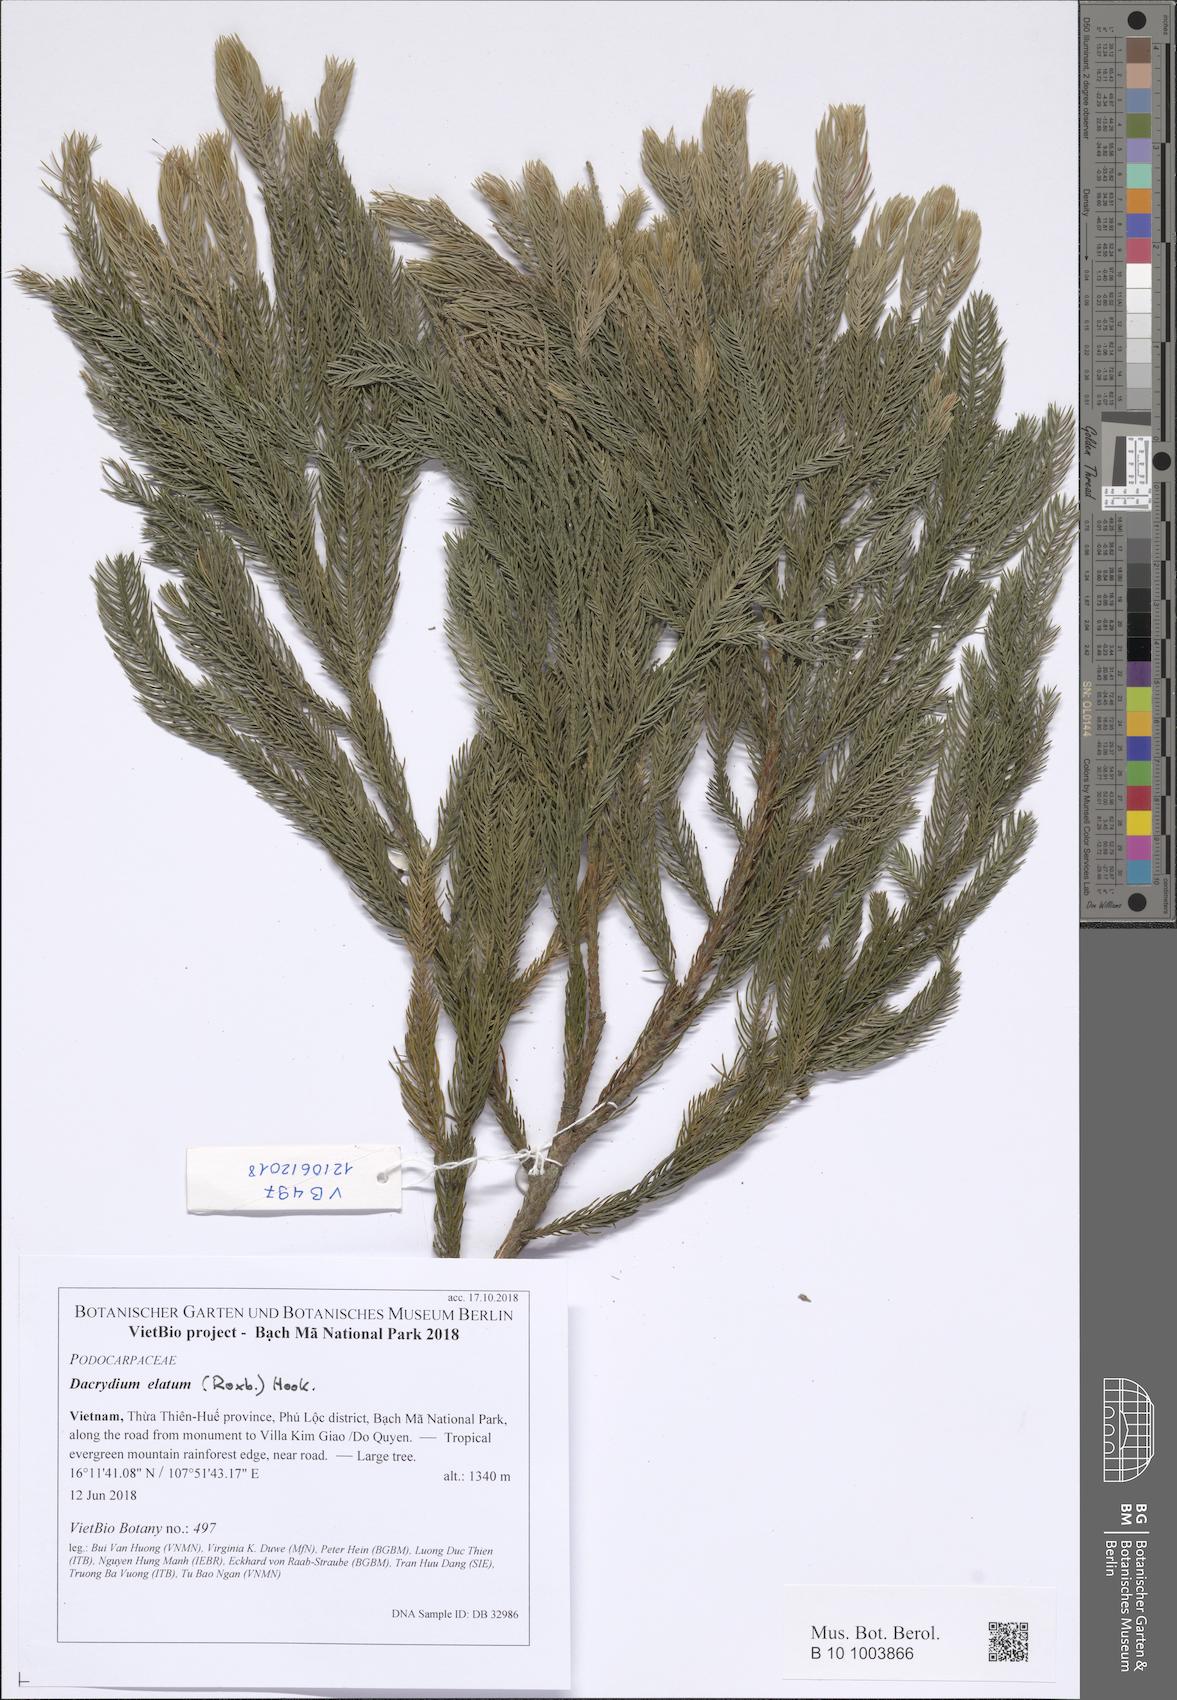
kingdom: Plantae
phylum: Tracheophyta
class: Pinopsida
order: Pinales
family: Podocarpaceae
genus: Dacrydium
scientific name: Dacrydium elatum
